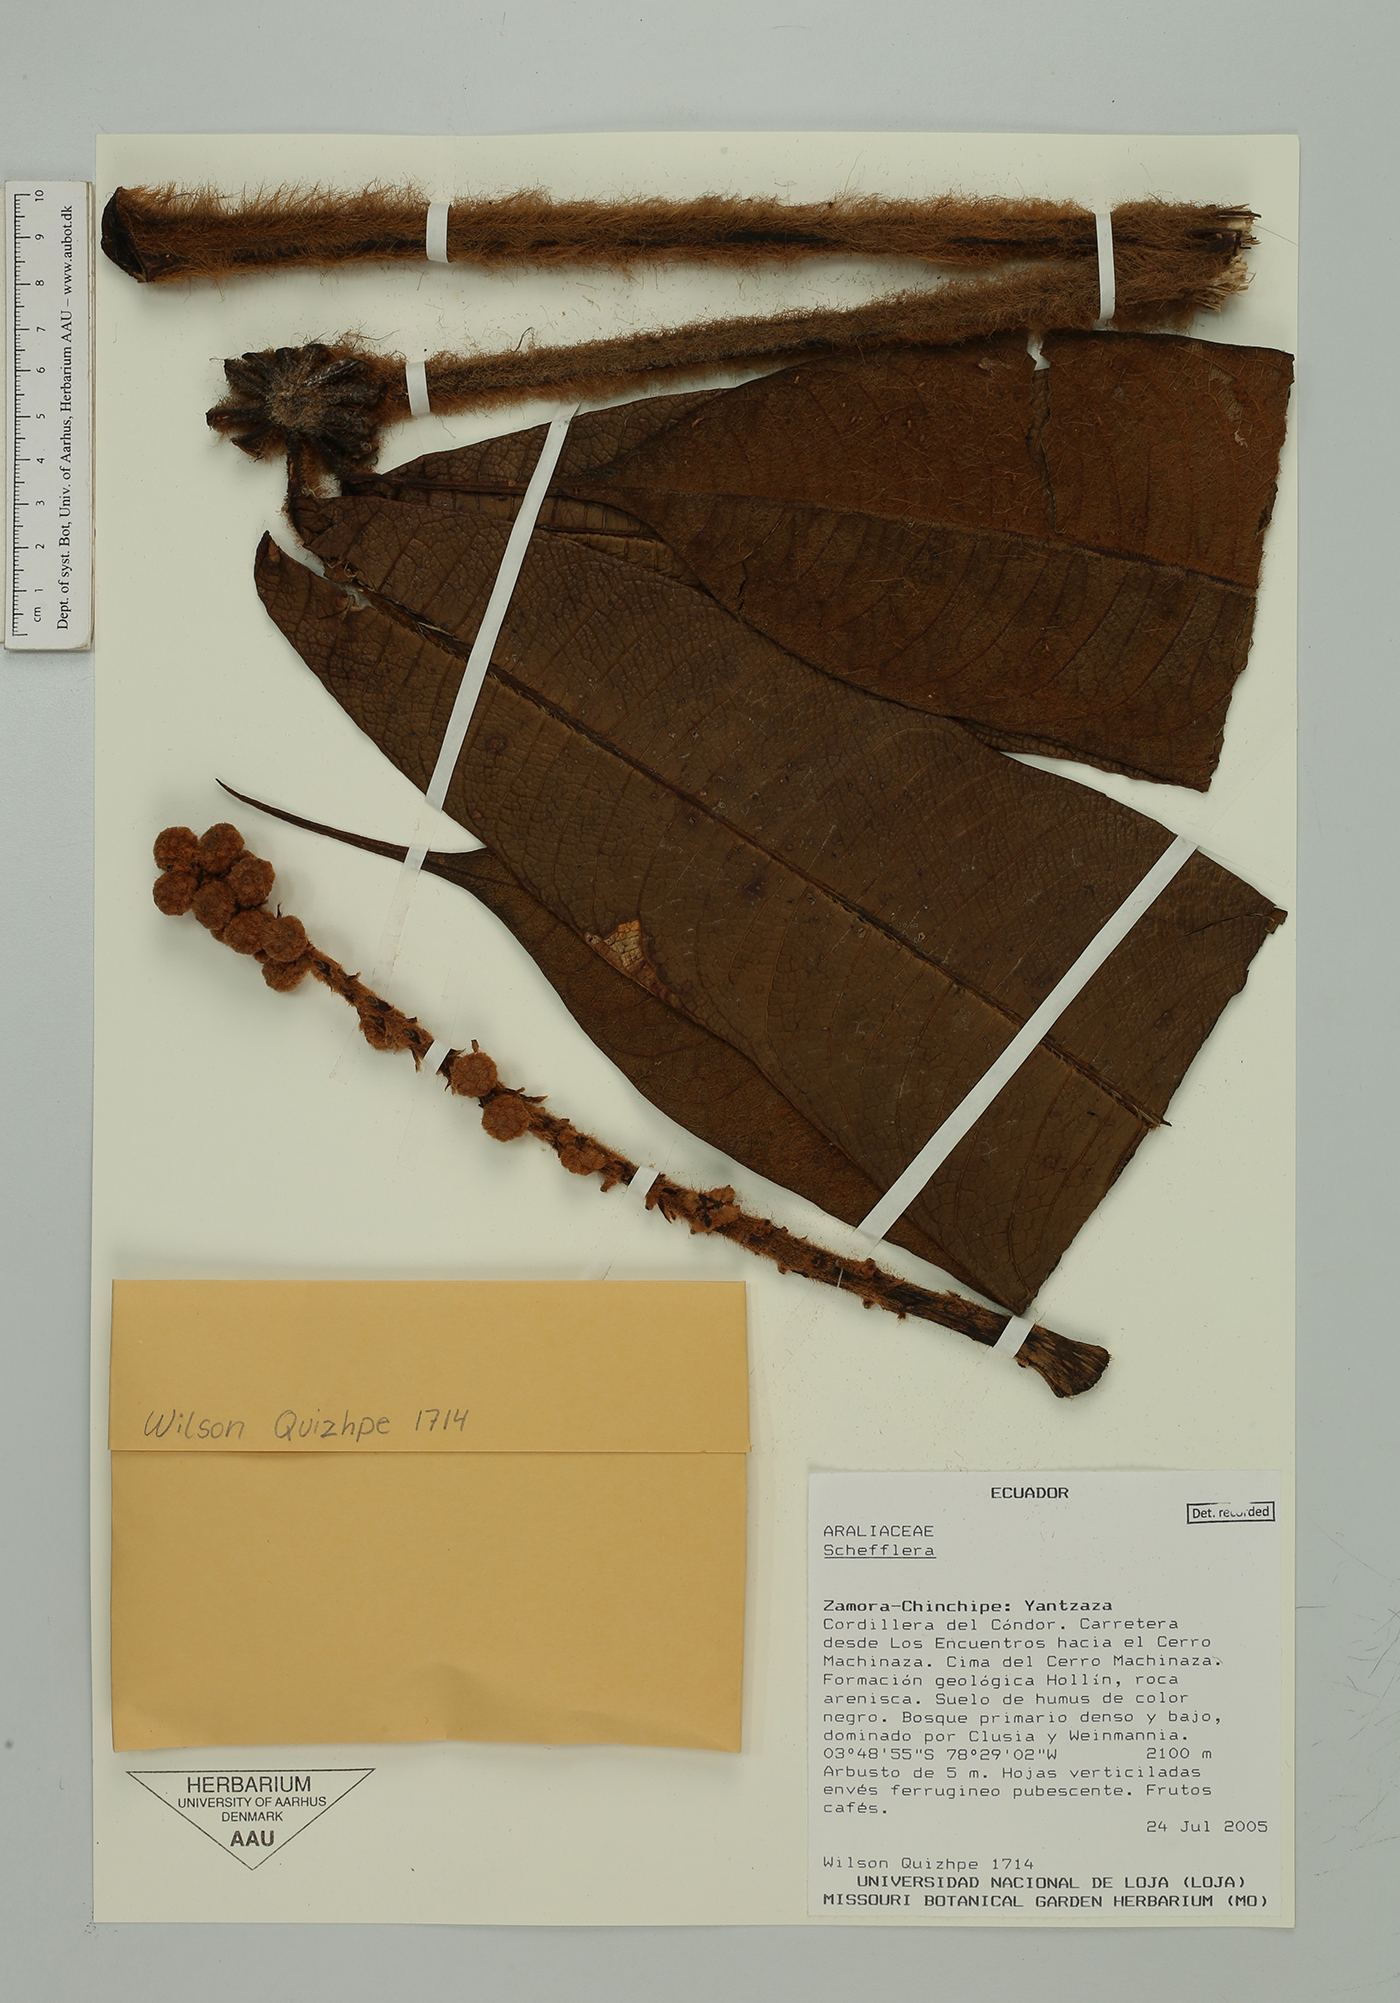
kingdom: Plantae
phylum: Tracheophyta
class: Magnoliopsida
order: Apiales
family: Araliaceae
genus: Sciodaphyllum
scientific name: Sciodaphyllum
